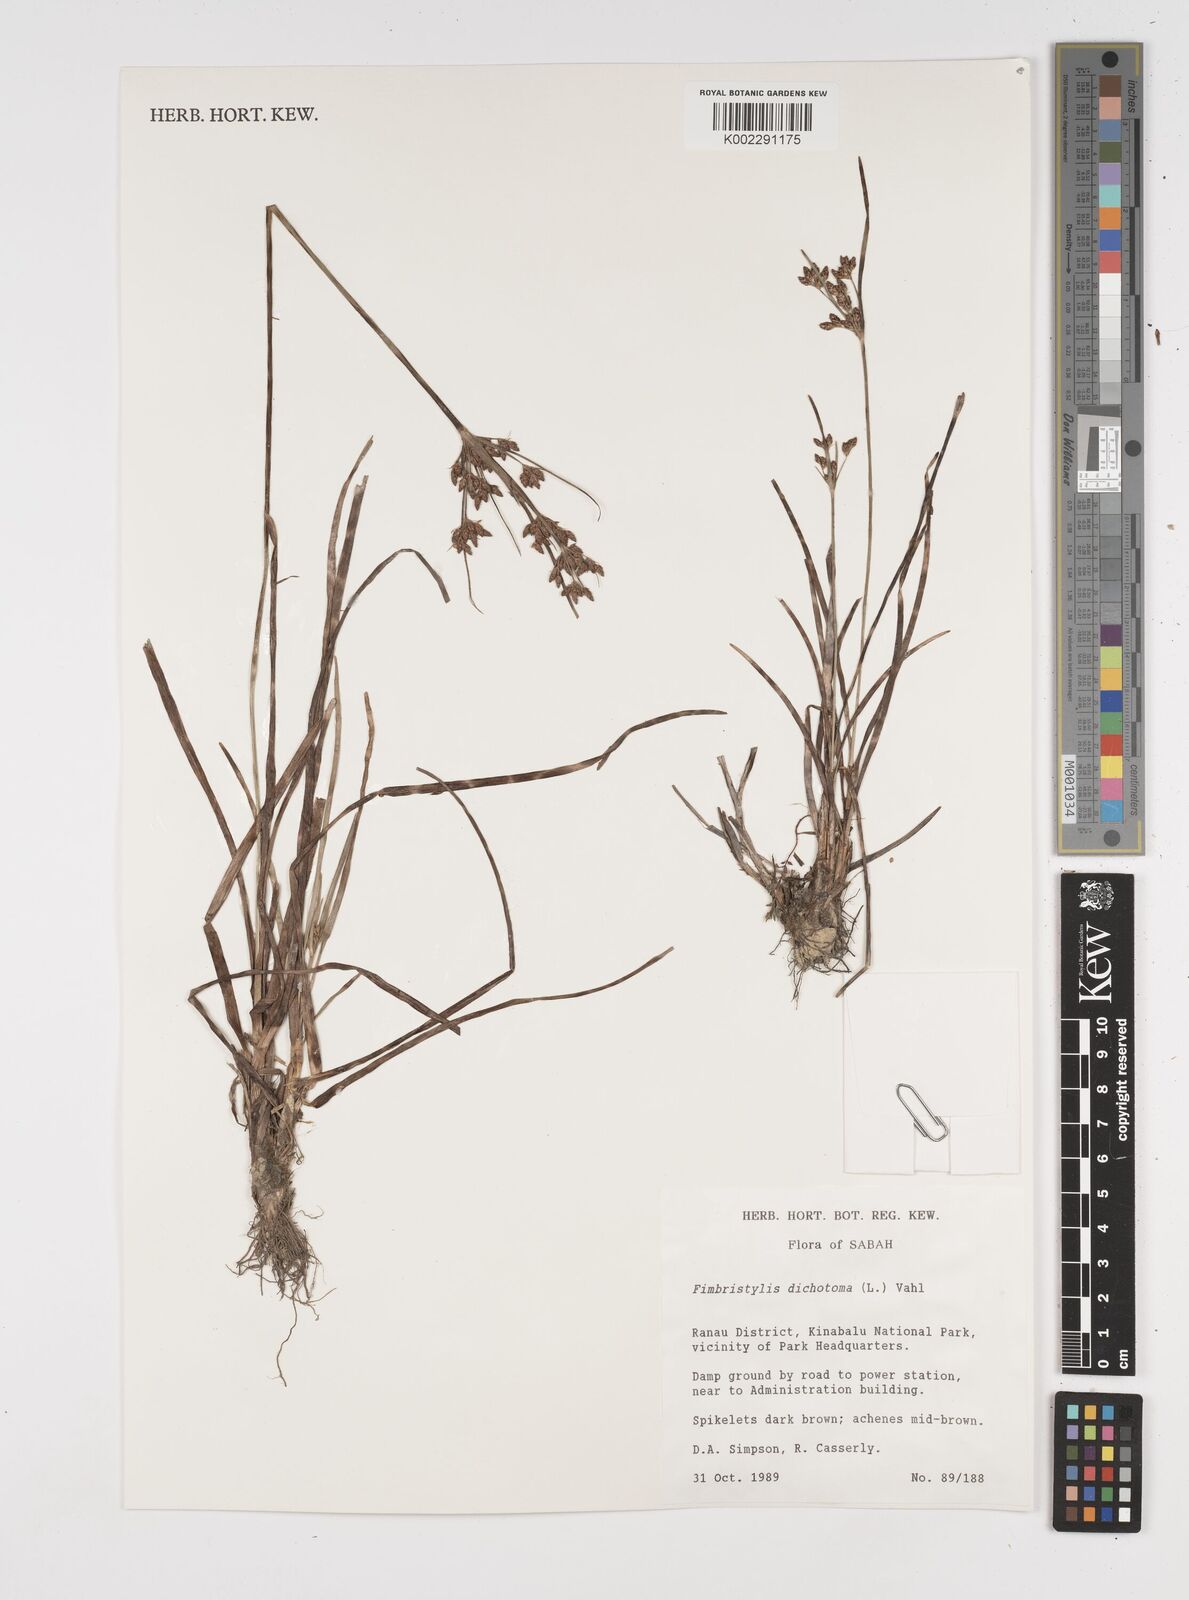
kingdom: Plantae
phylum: Tracheophyta
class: Liliopsida
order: Poales
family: Cyperaceae
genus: Fimbristylis
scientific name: Fimbristylis dichotoma
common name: Forked fimbry
